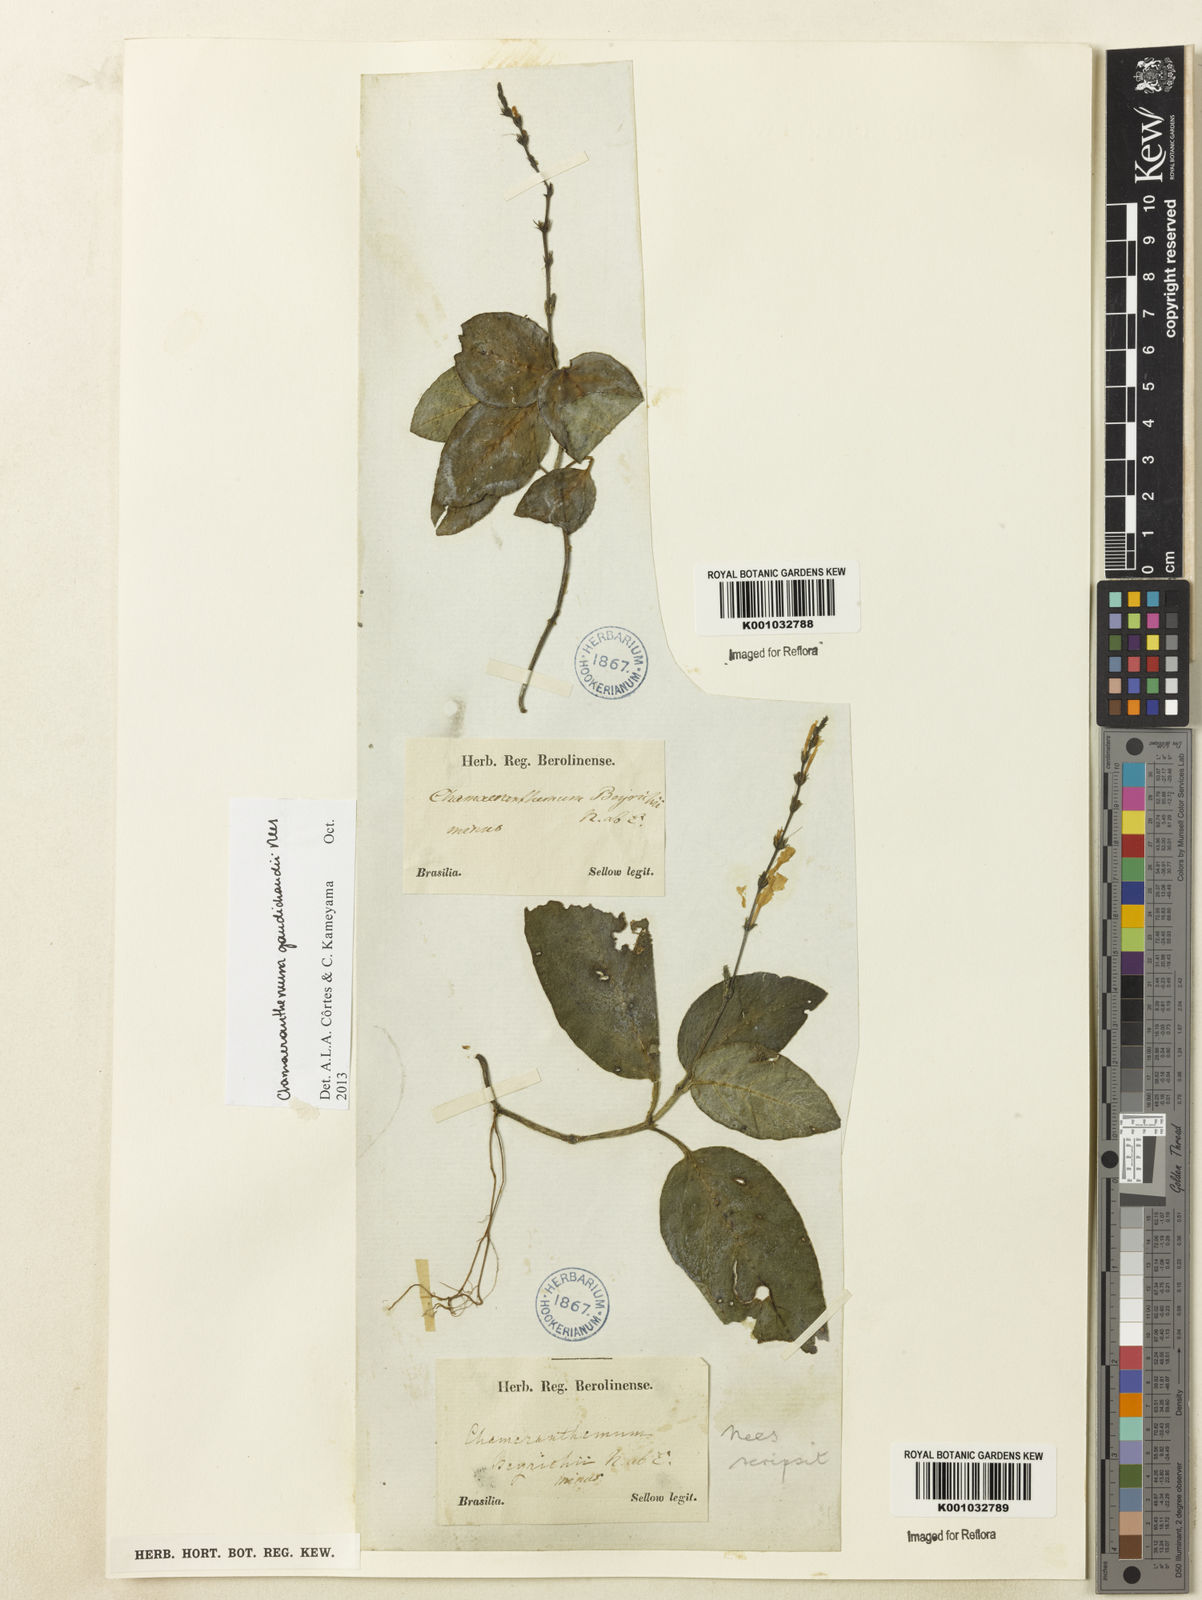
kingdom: Plantae
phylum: Tracheophyta
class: Magnoliopsida
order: Lamiales
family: Acanthaceae
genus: Chamaeranthemum
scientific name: Chamaeranthemum beyrichii
